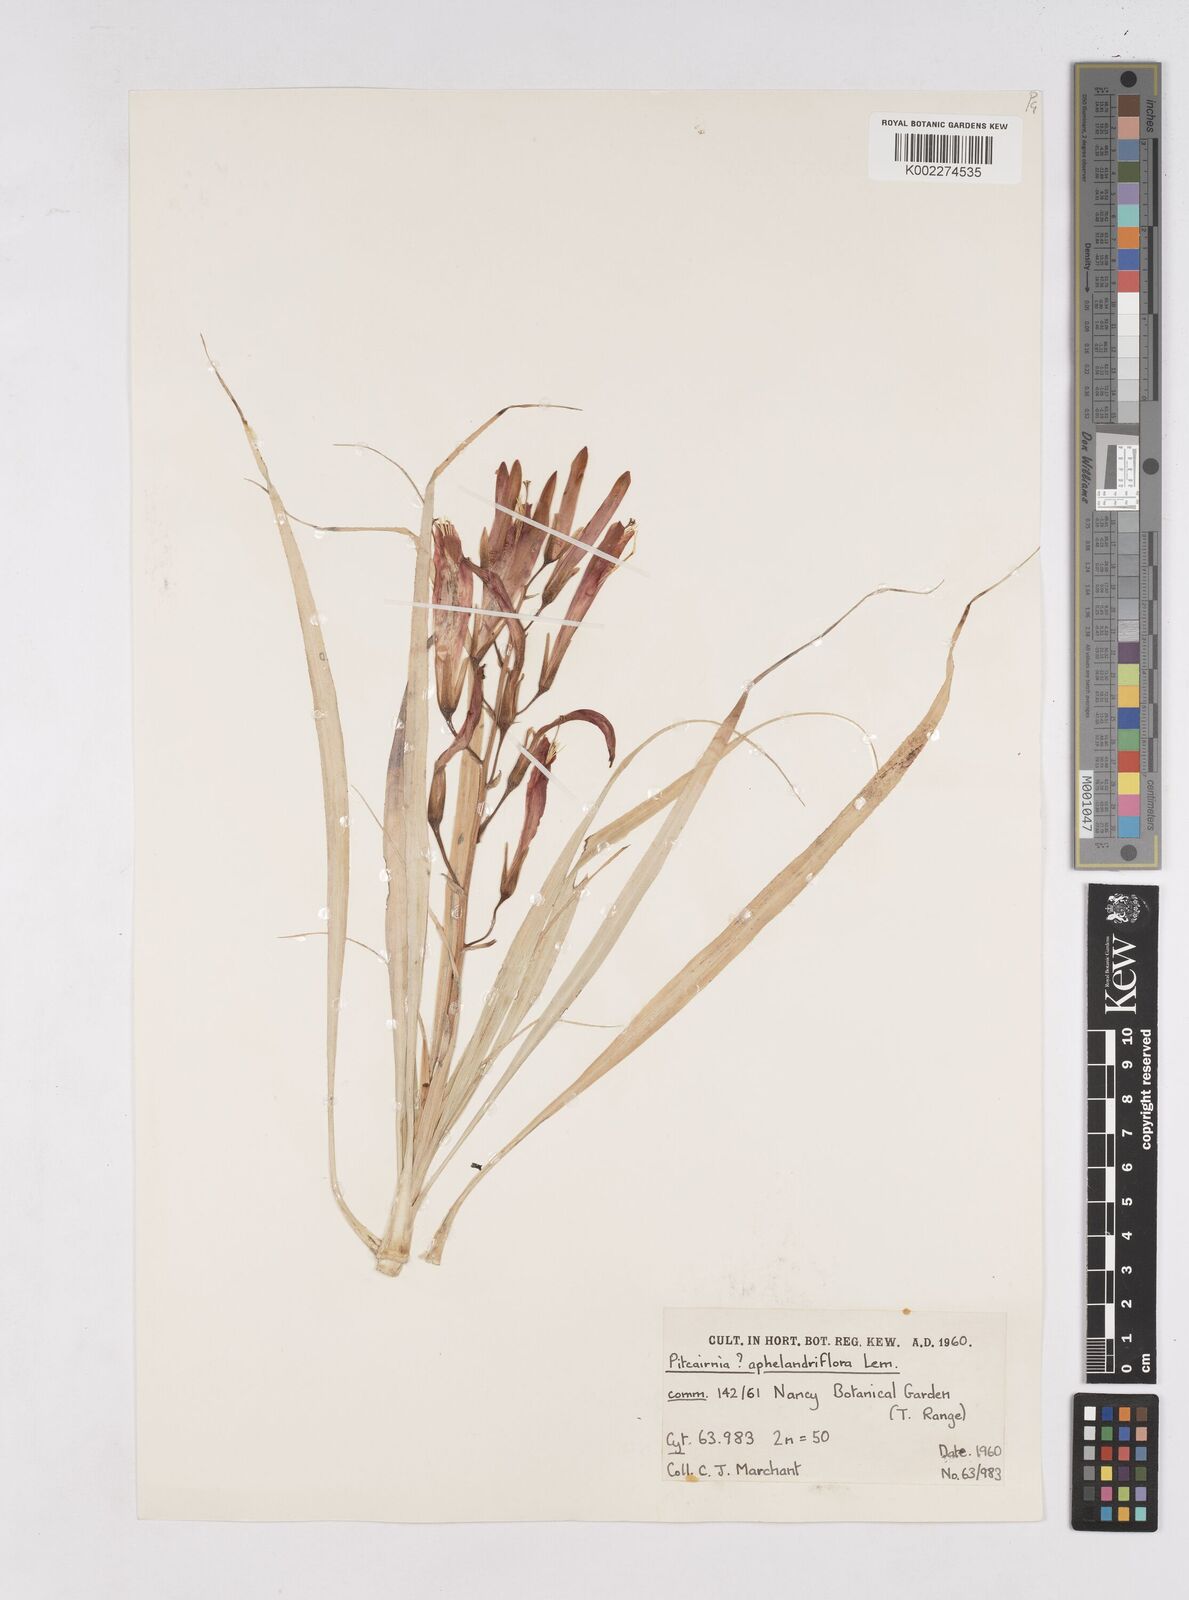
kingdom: Plantae
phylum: Tracheophyta
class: Liliopsida
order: Poales
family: Bromeliaceae
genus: Pitcairnia
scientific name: Pitcairnia aphelandriflora
